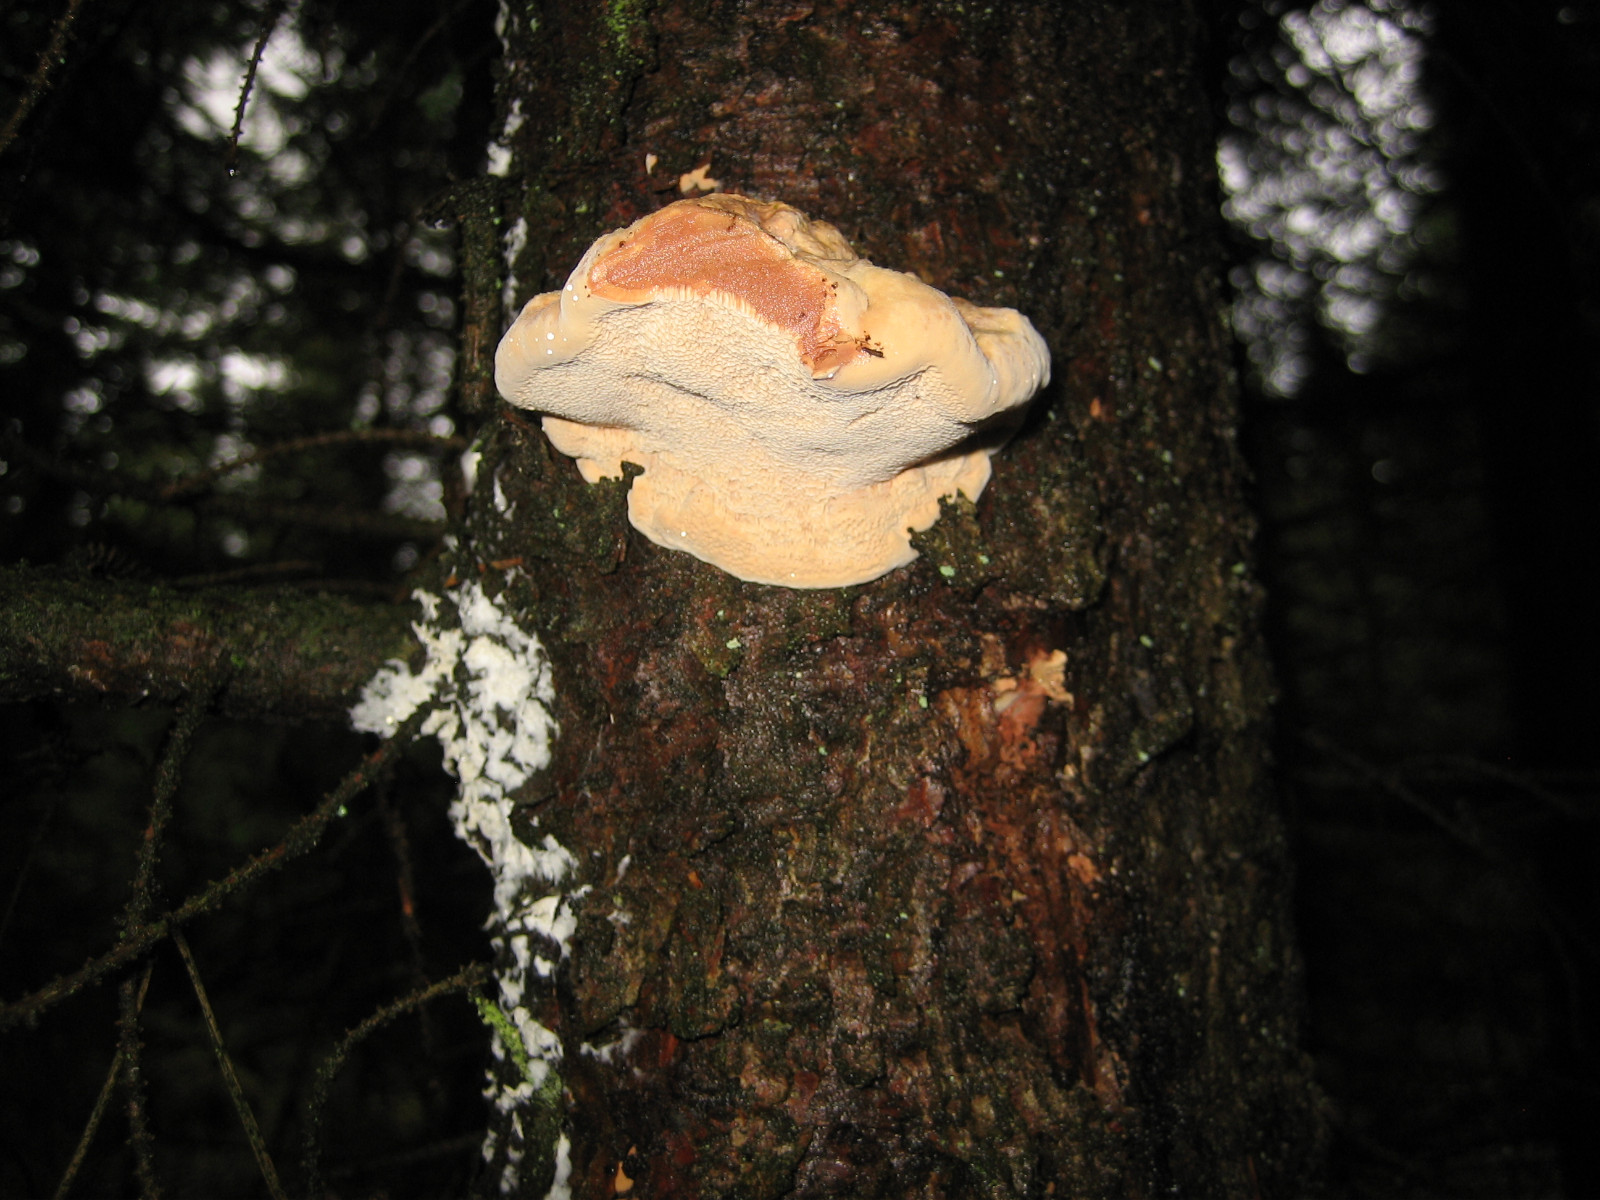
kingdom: Fungi
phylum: Basidiomycota
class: Agaricomycetes
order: Polyporales
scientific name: Polyporales
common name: poresvampordenen
